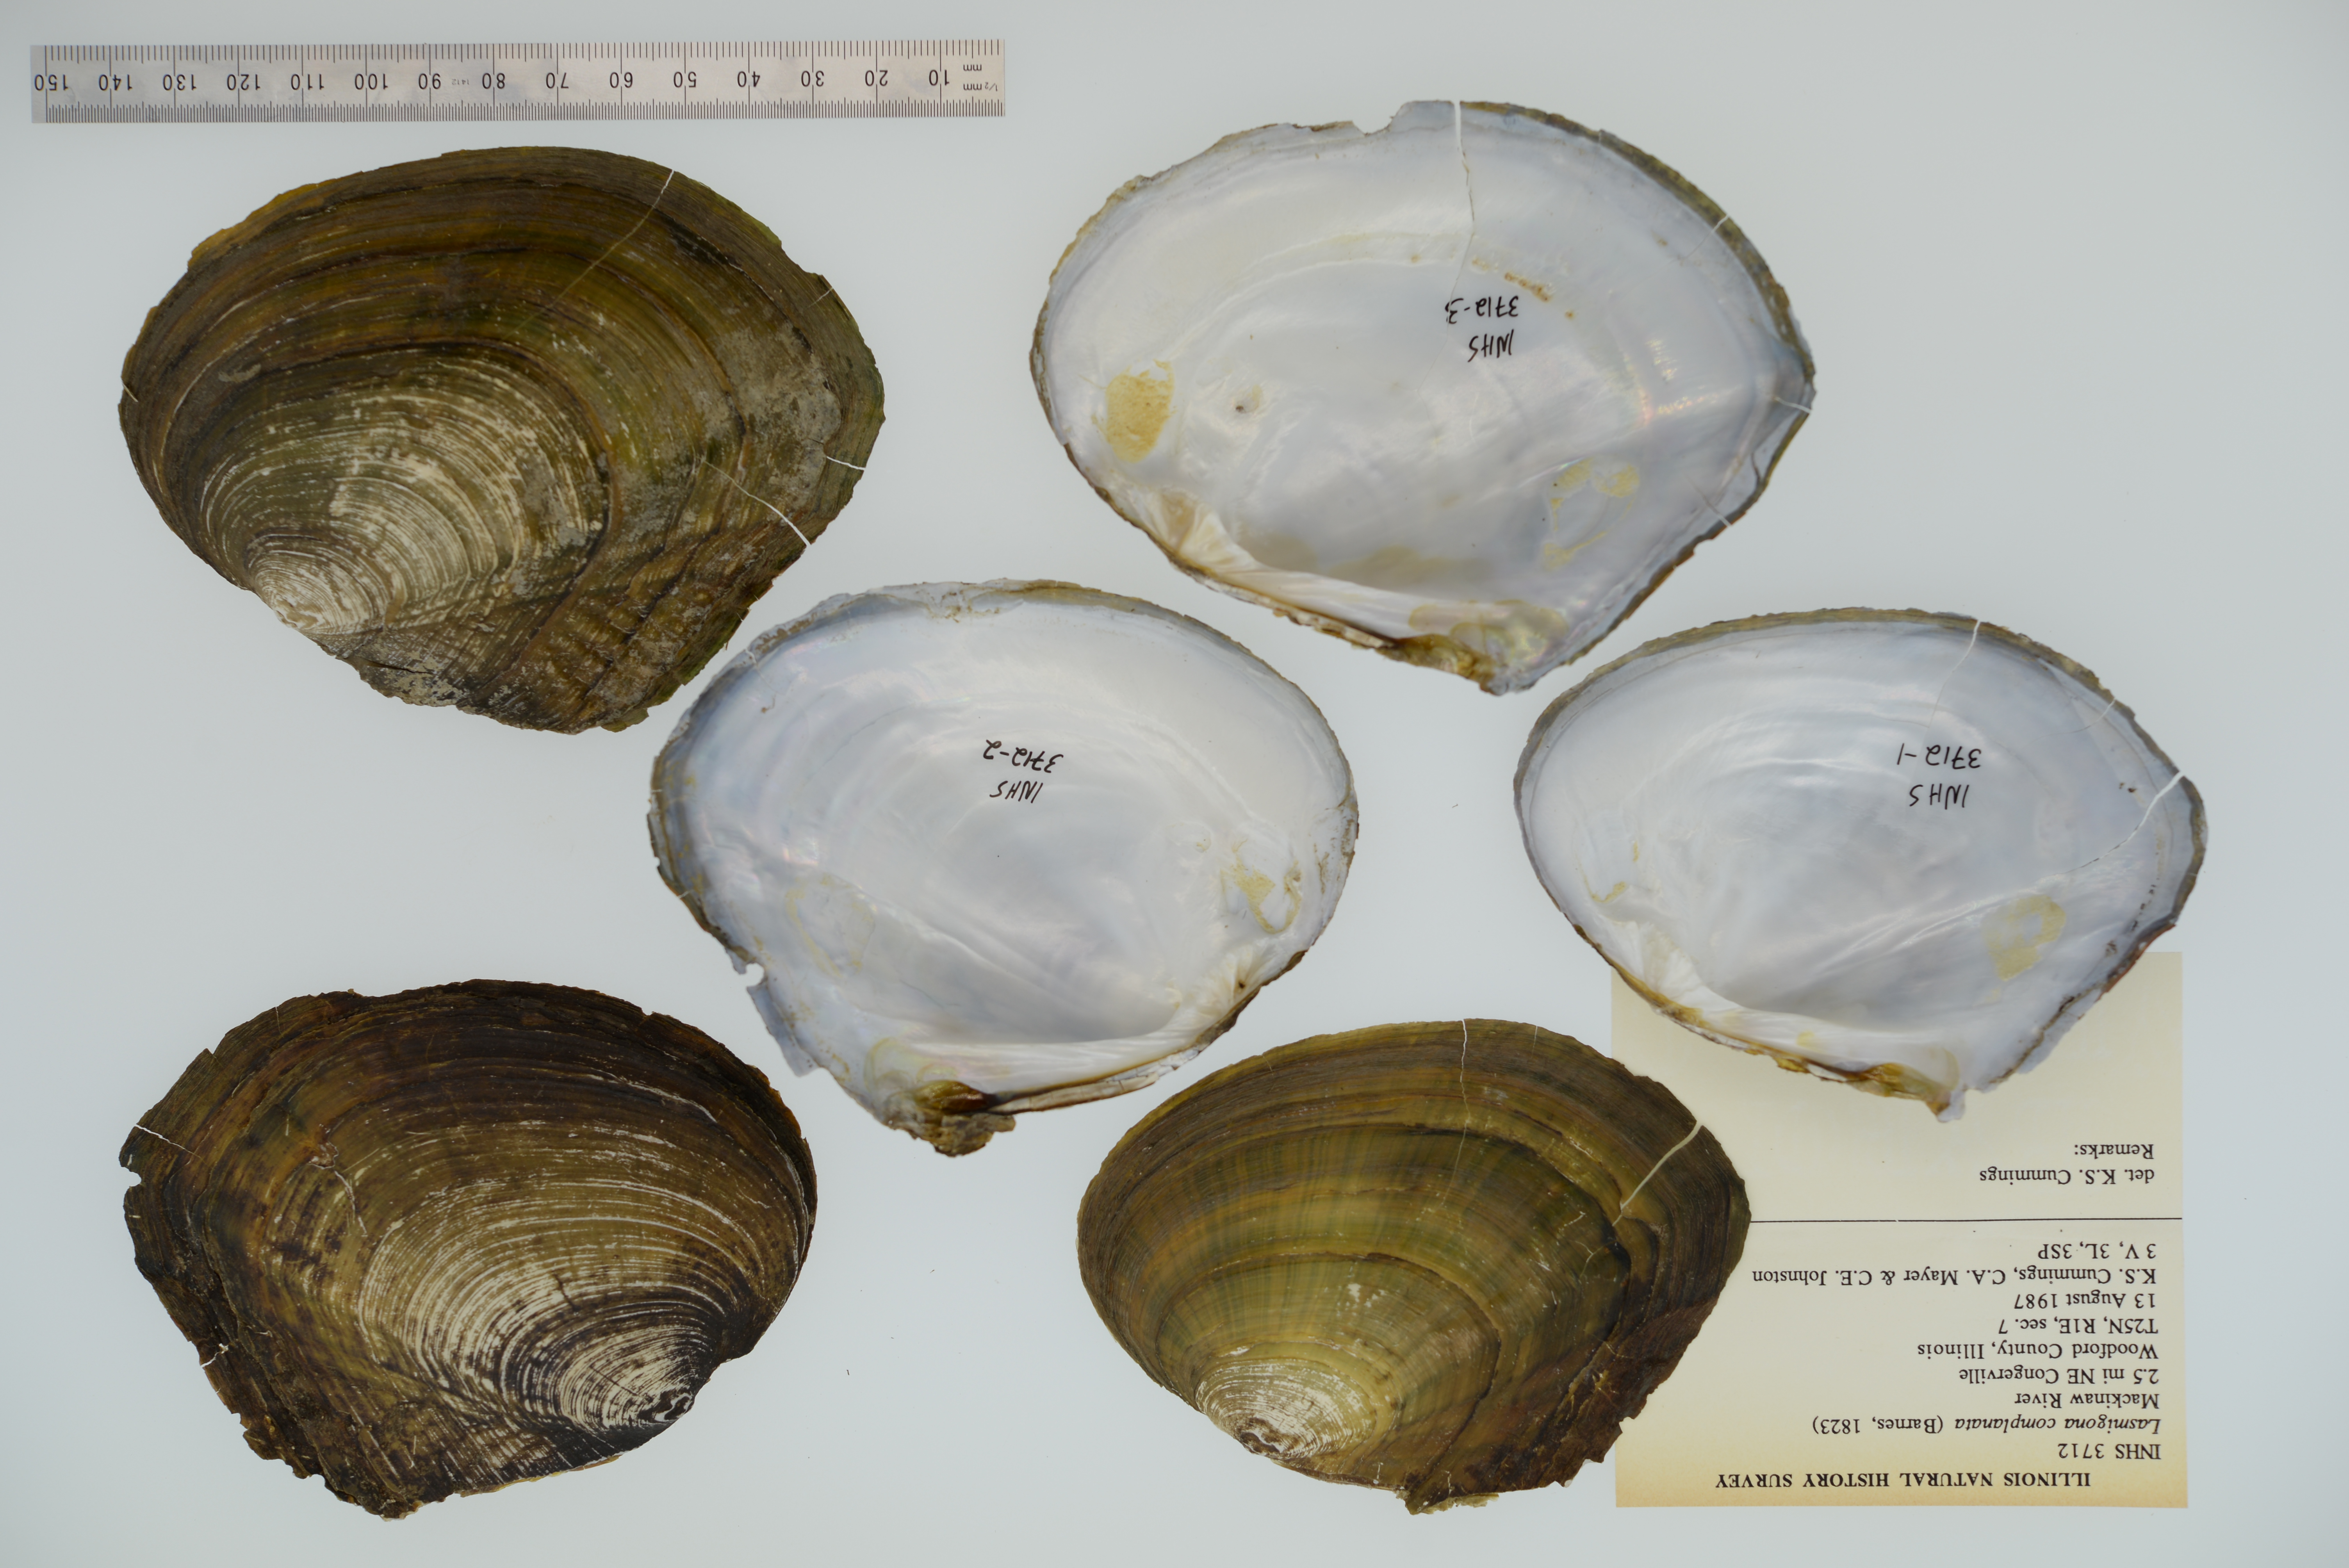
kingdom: Animalia
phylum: Mollusca
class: Bivalvia
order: Unionida
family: Unionidae
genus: Lasmigona
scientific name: Lasmigona complanata
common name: White heelsplitter
